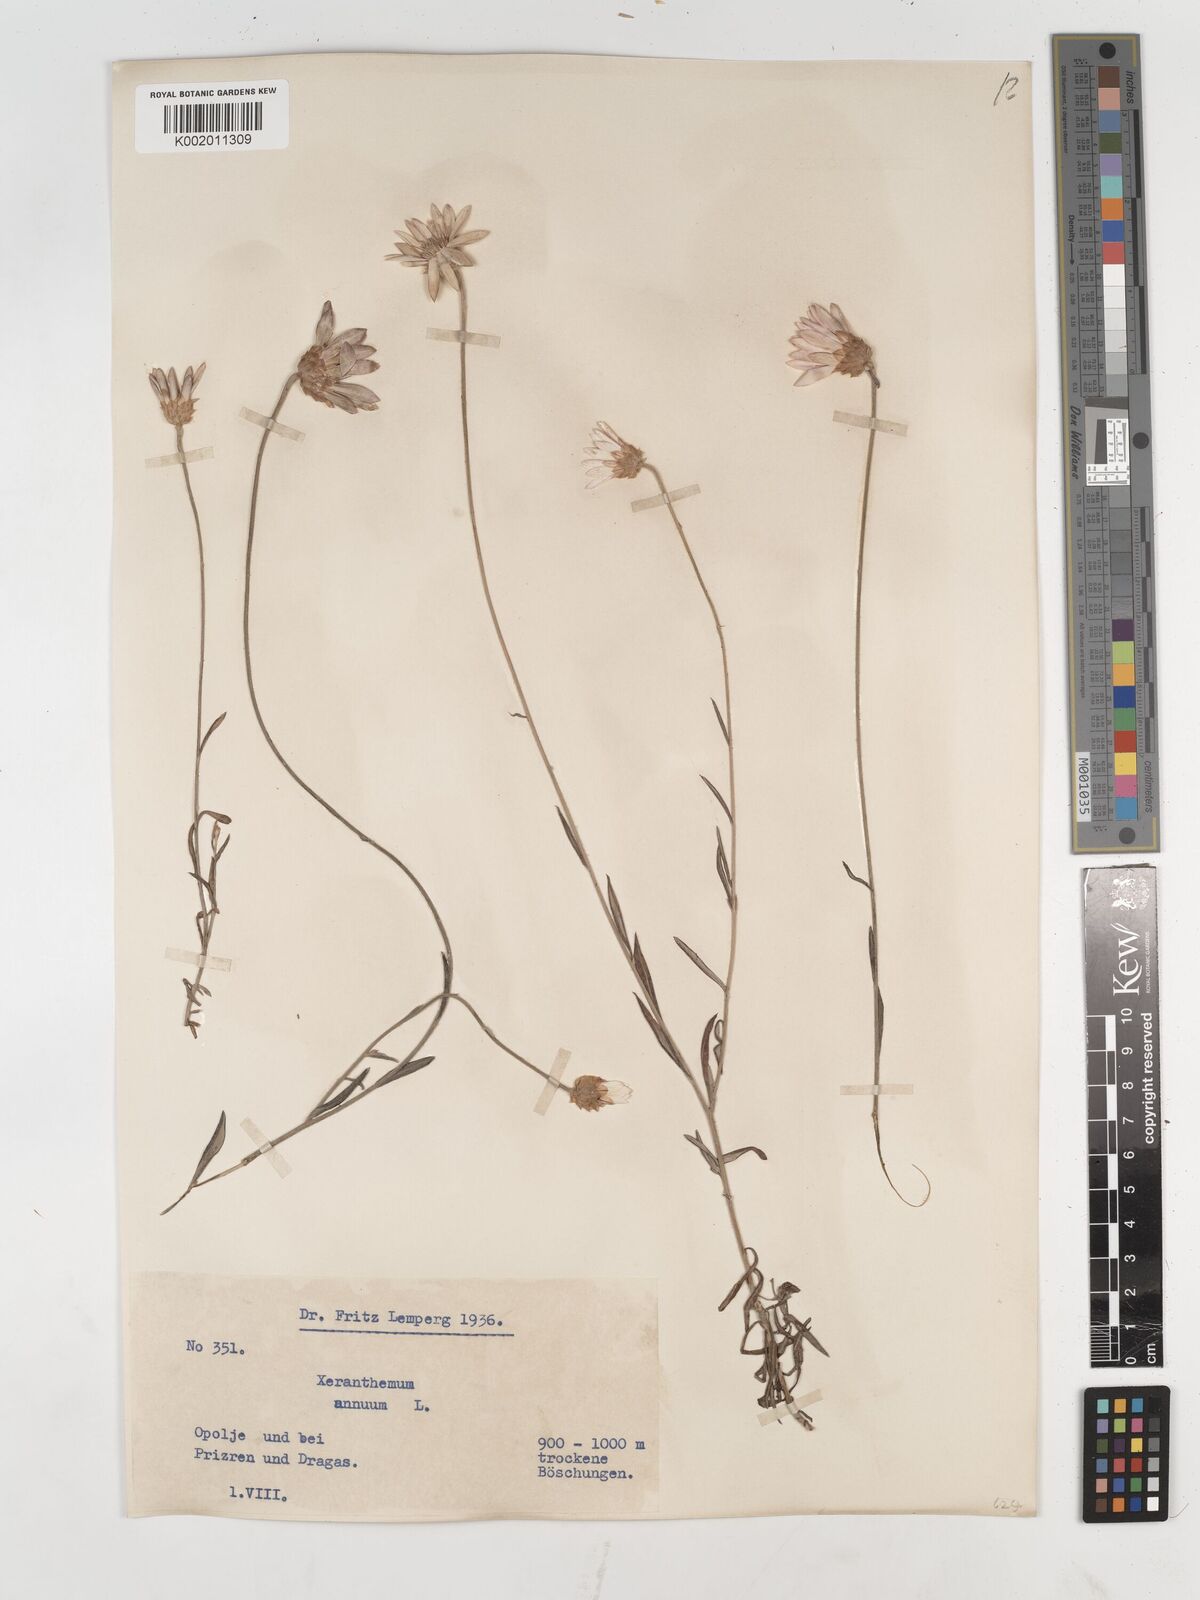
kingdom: Plantae
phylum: Tracheophyta
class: Magnoliopsida
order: Asterales
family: Asteraceae
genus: Xeranthemum
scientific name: Xeranthemum annuum
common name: Immortelle
